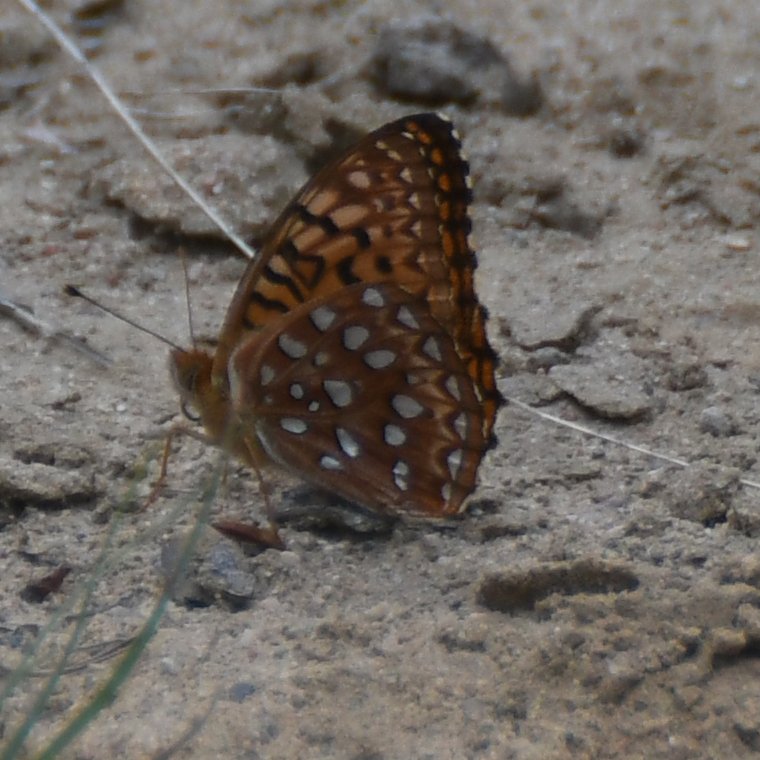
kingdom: Animalia
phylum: Arthropoda
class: Insecta
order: Lepidoptera
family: Nymphalidae
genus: Speyeria
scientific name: Speyeria aphrodite
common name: Aphrodite Fritillary
